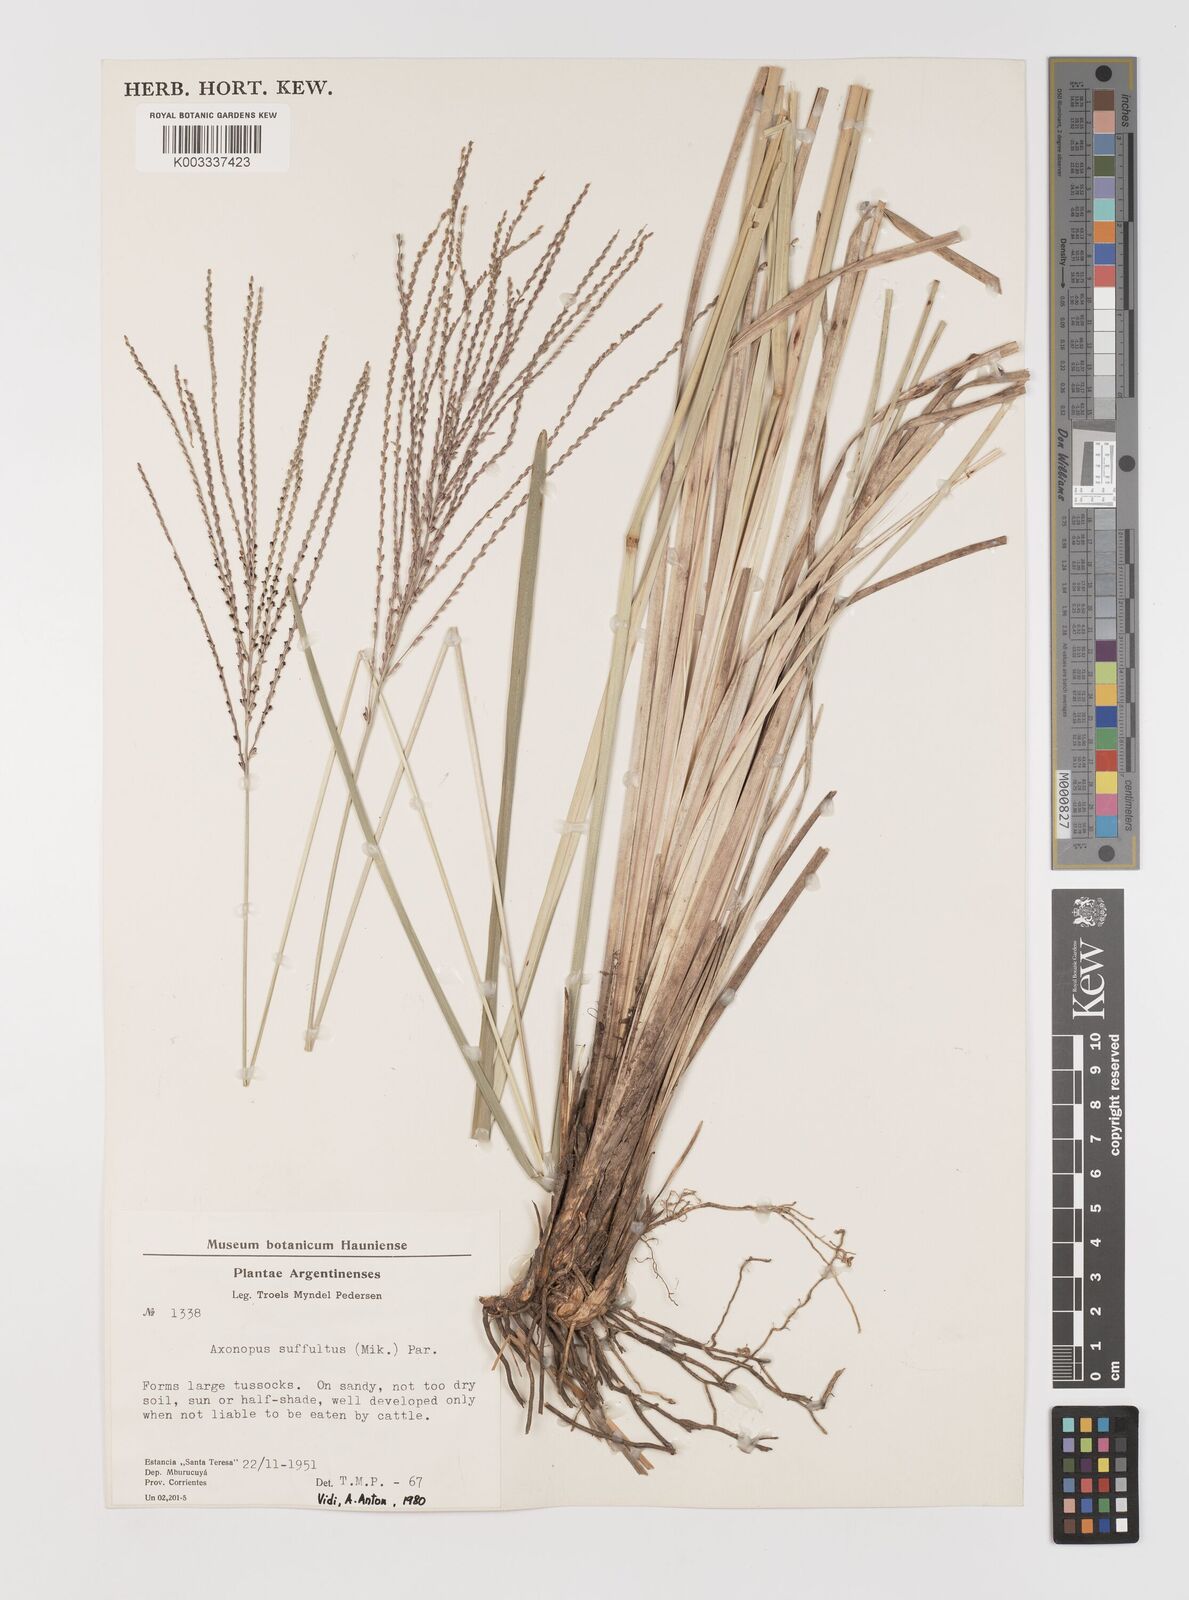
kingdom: Plantae
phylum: Tracheophyta
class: Liliopsida
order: Poales
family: Poaceae
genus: Axonopus
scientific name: Axonopus suffultus
